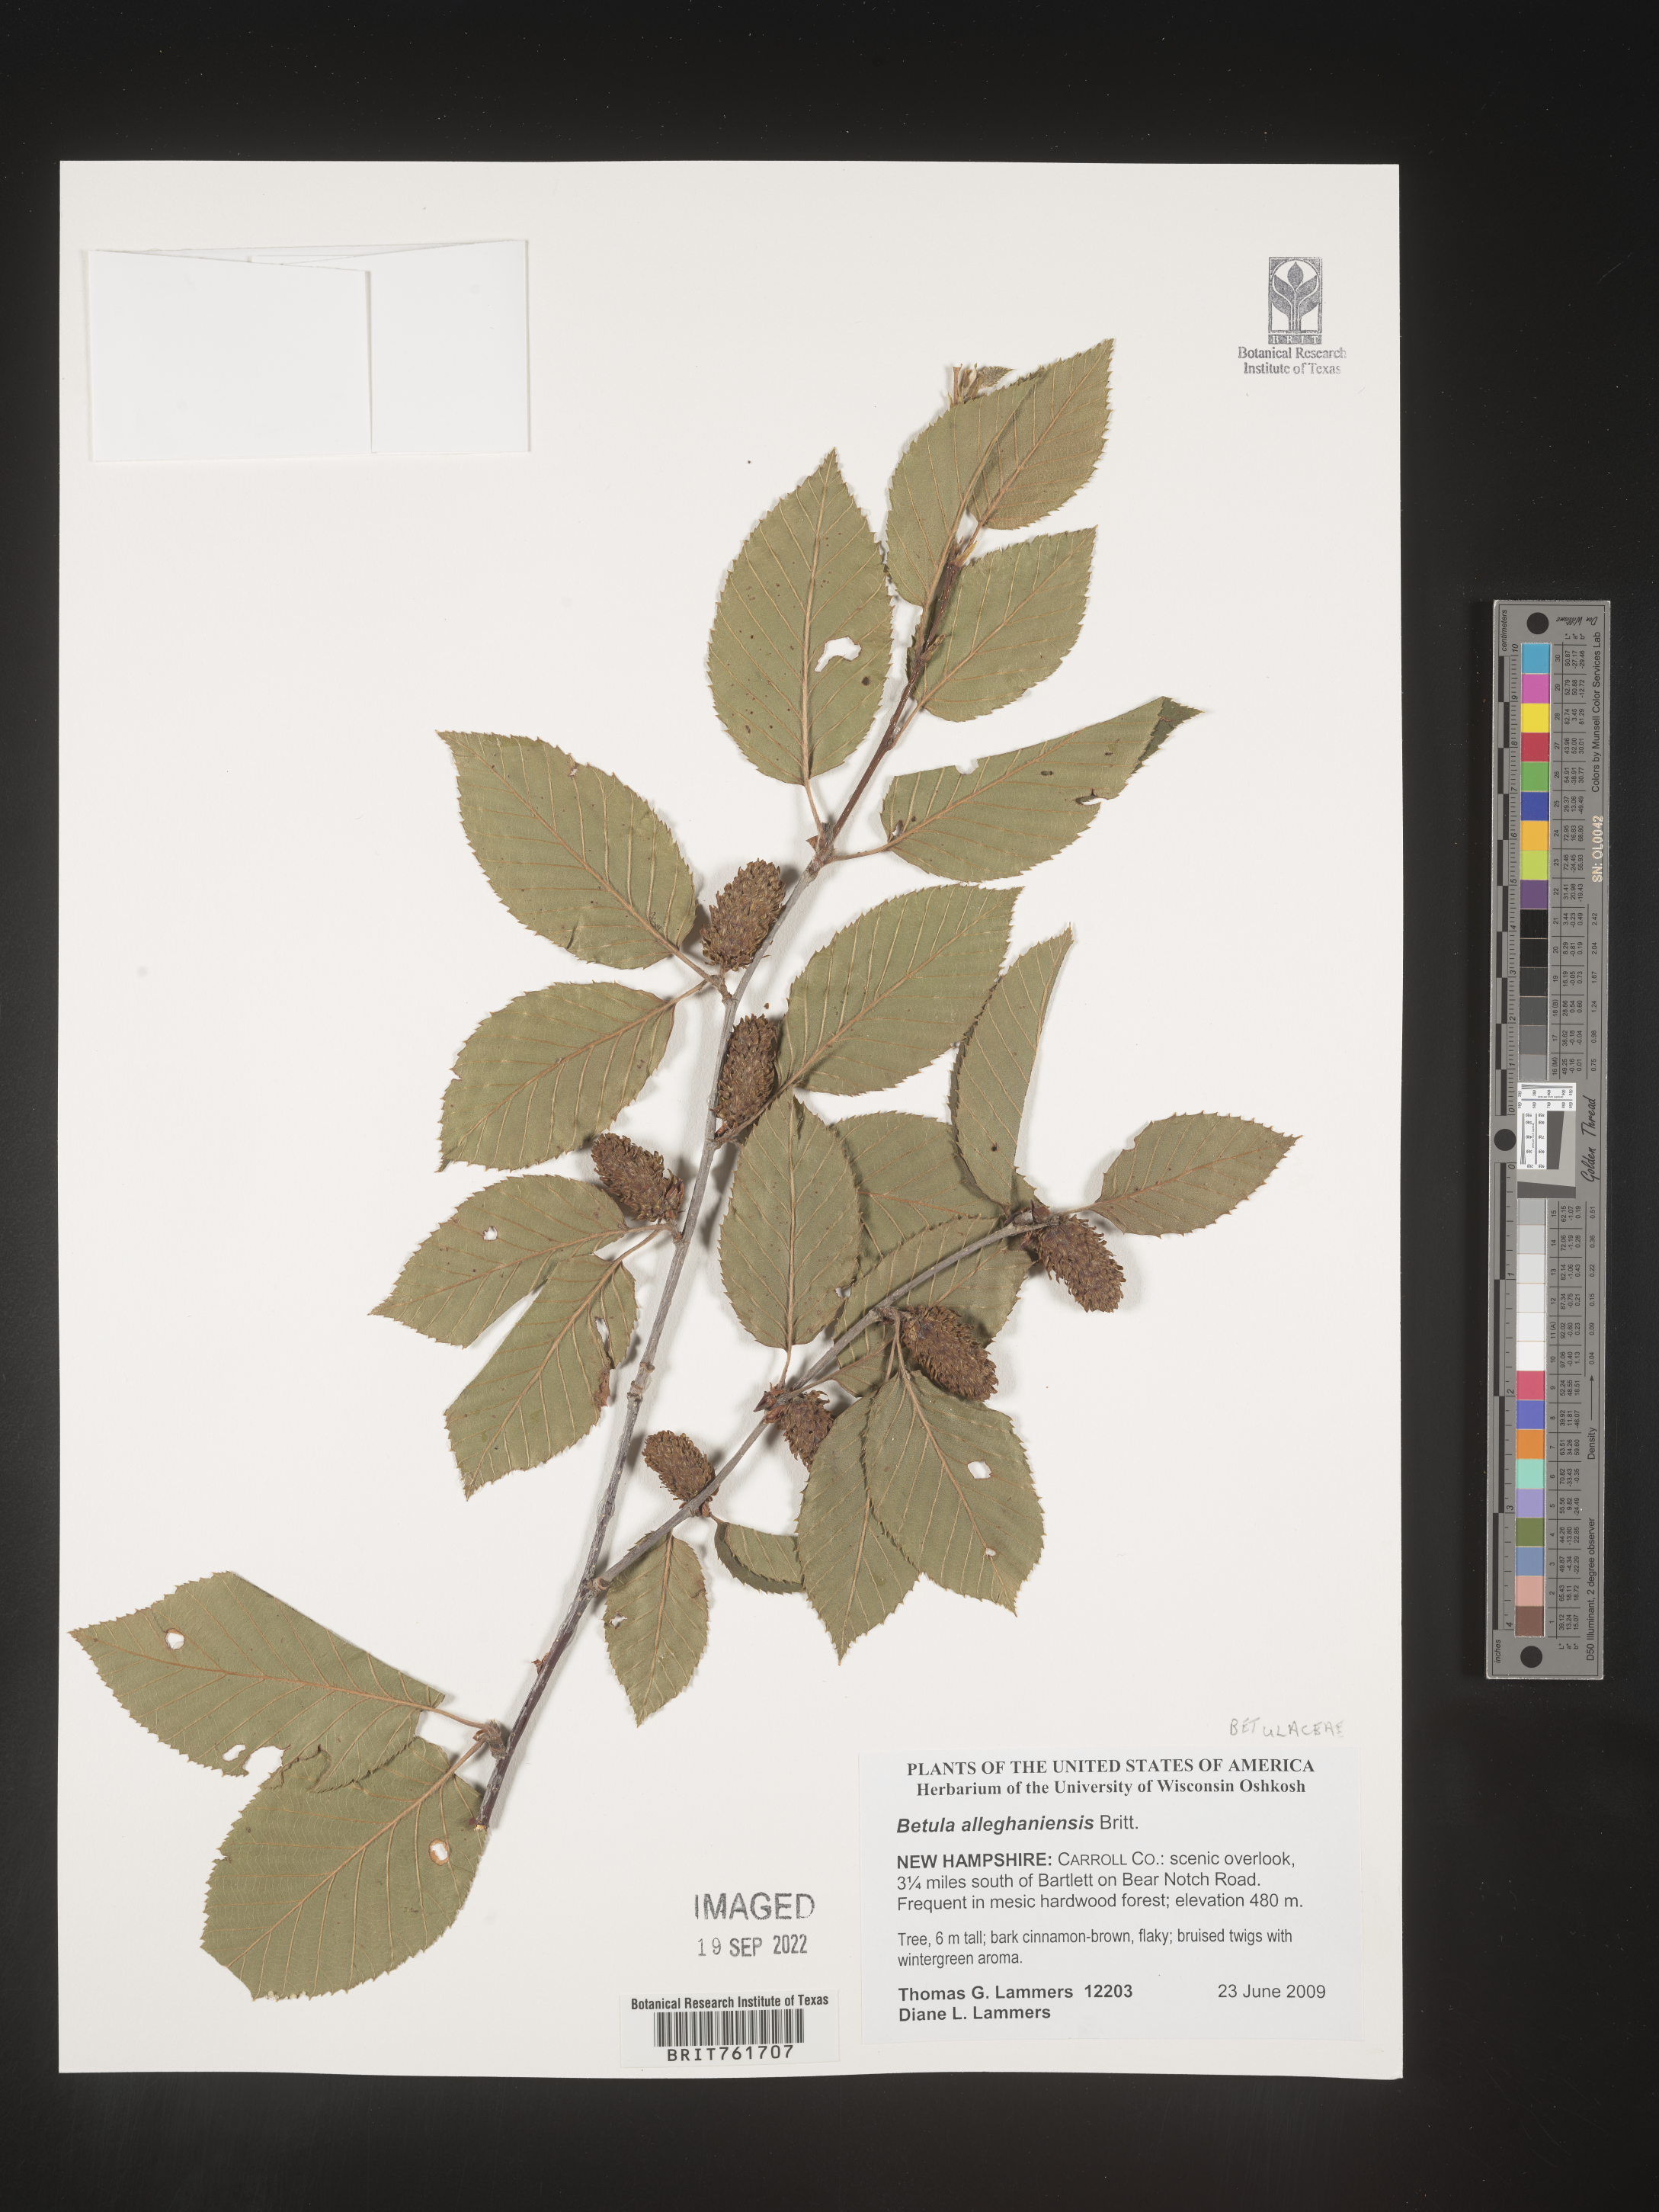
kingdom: Plantae
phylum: Tracheophyta
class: Magnoliopsida
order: Fagales
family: Betulaceae
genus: Betula
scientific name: Betula alleghaniensis
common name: Yellow birch
